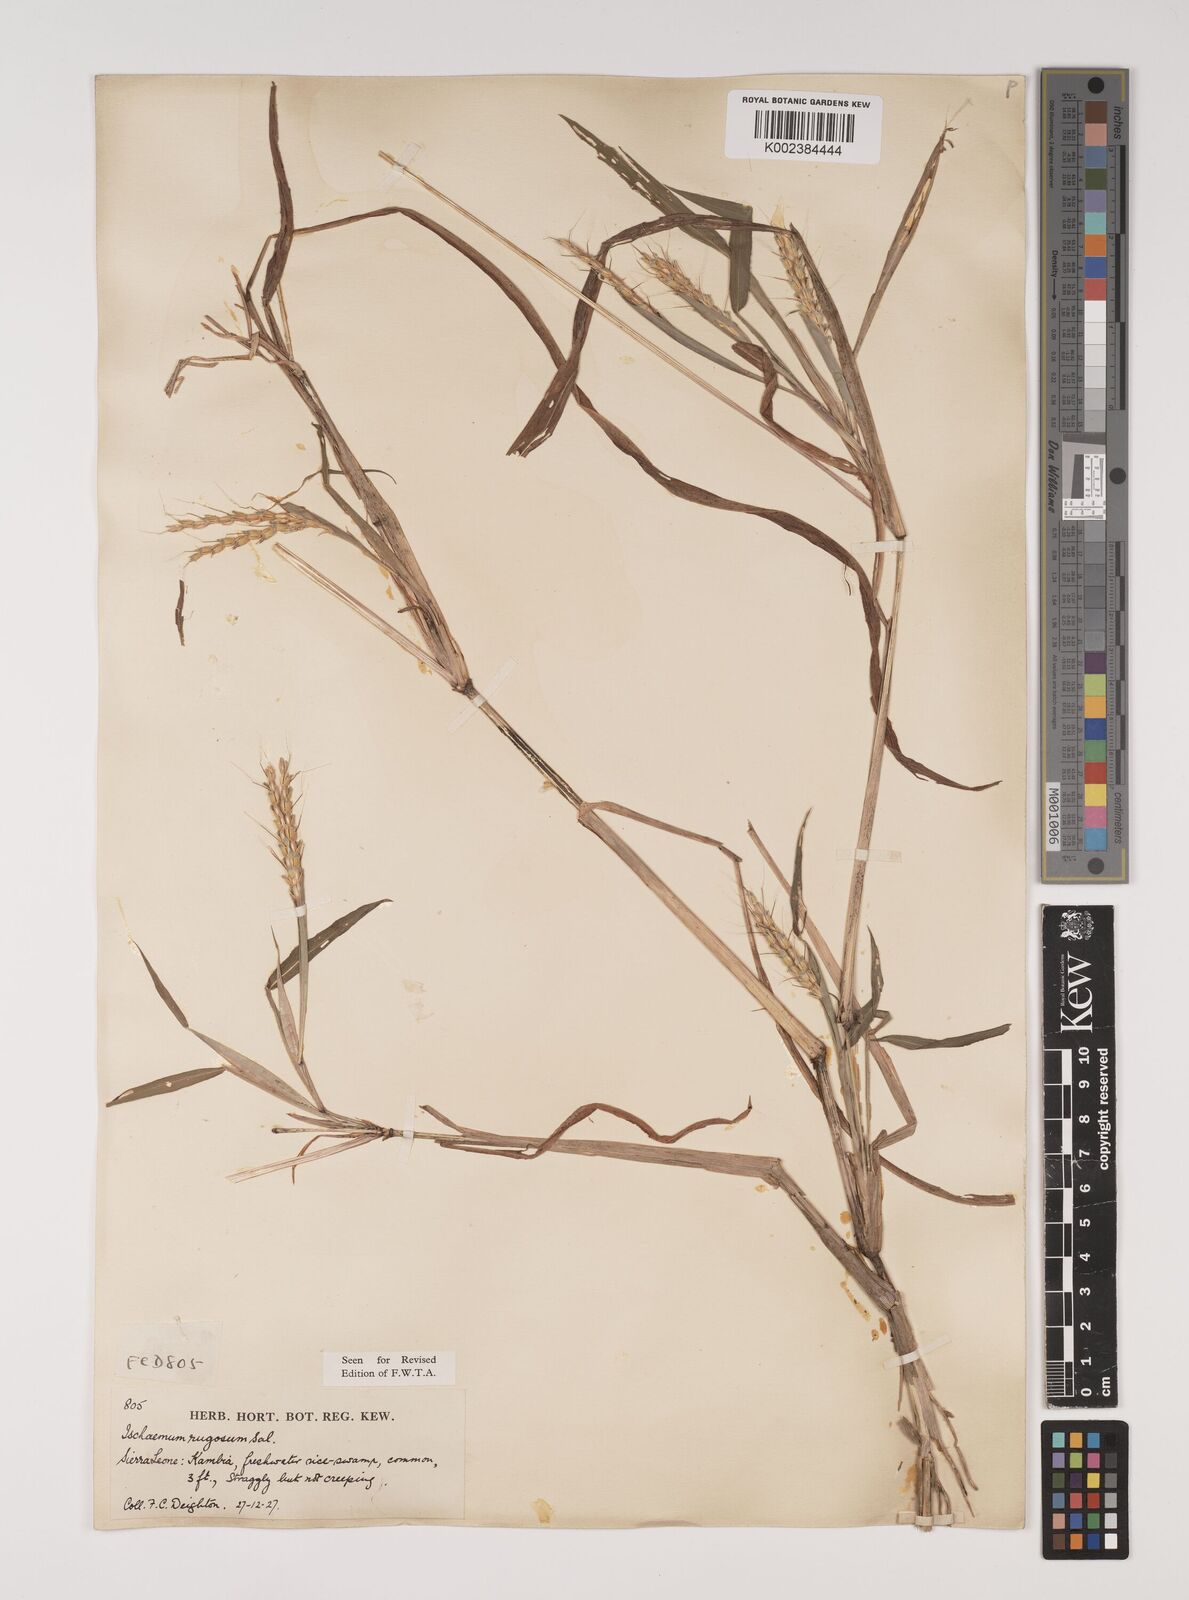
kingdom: Plantae
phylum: Tracheophyta
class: Liliopsida
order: Poales
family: Poaceae
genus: Ischaemum
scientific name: Ischaemum rugosum
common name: Saramatta grass
